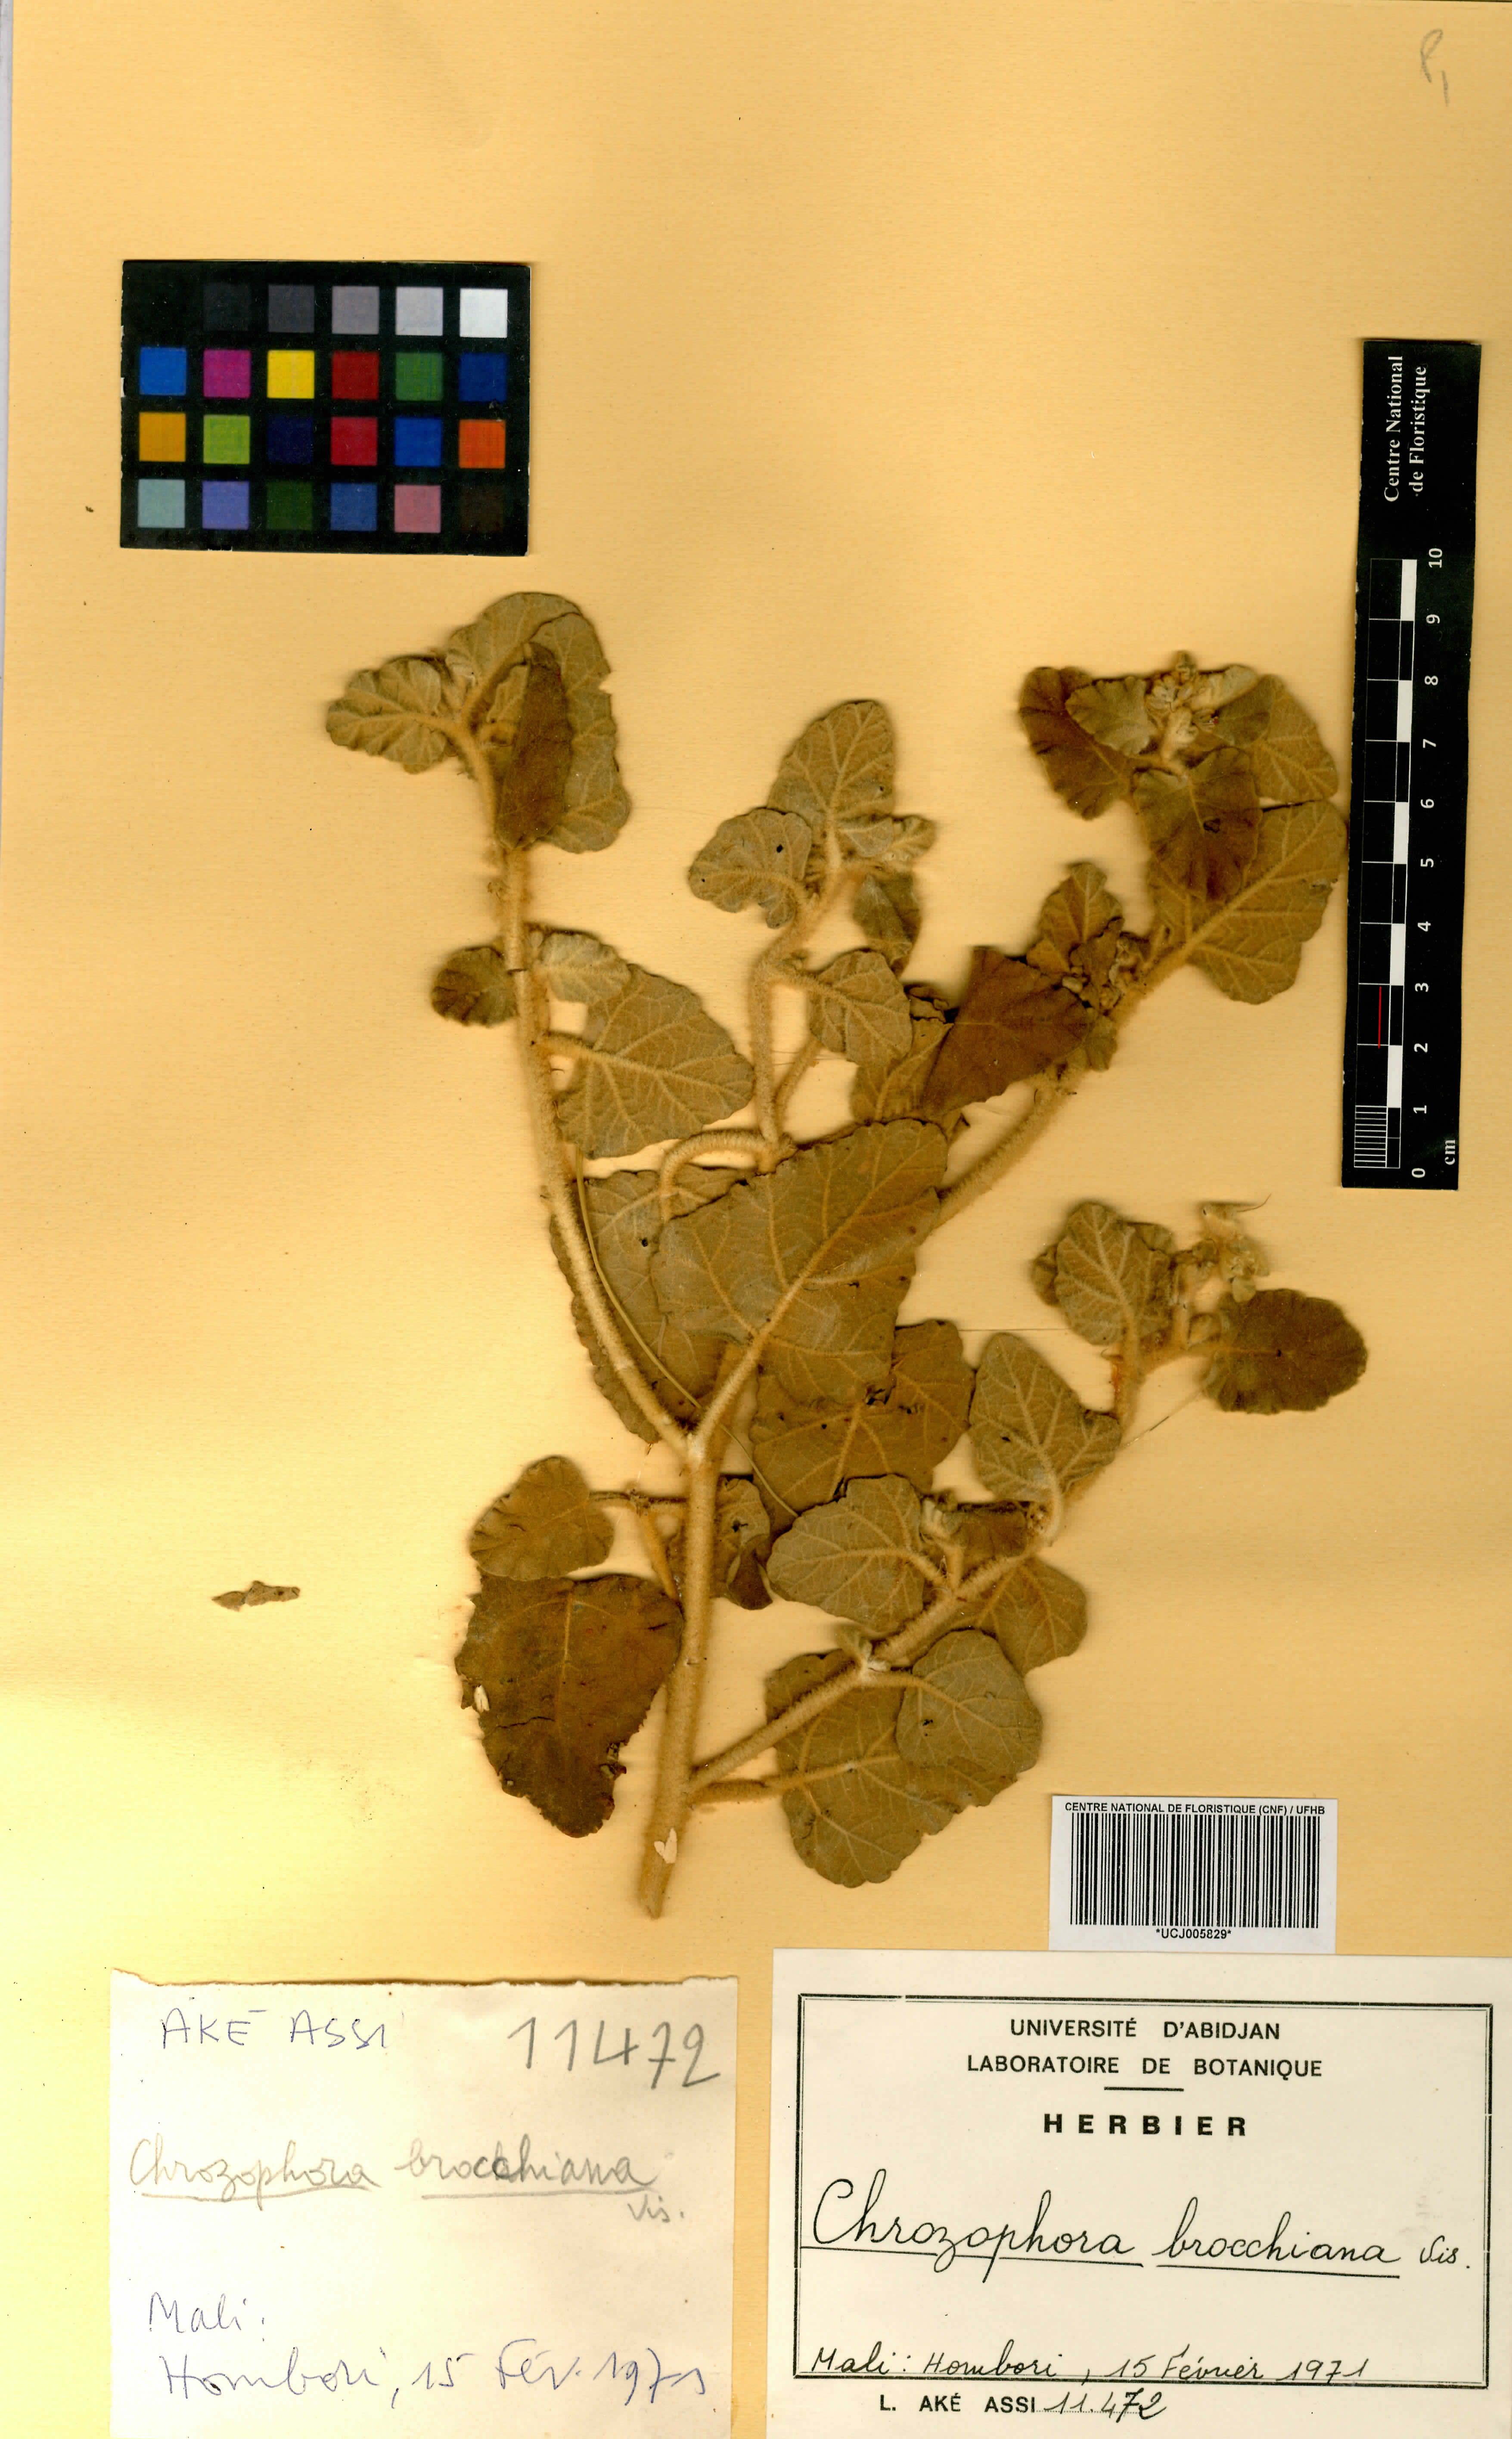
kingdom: Plantae
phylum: Tracheophyta
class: Magnoliopsida
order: Malpighiales
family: Euphorbiaceae
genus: Chrozophora
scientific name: Chrozophora brocchiana
